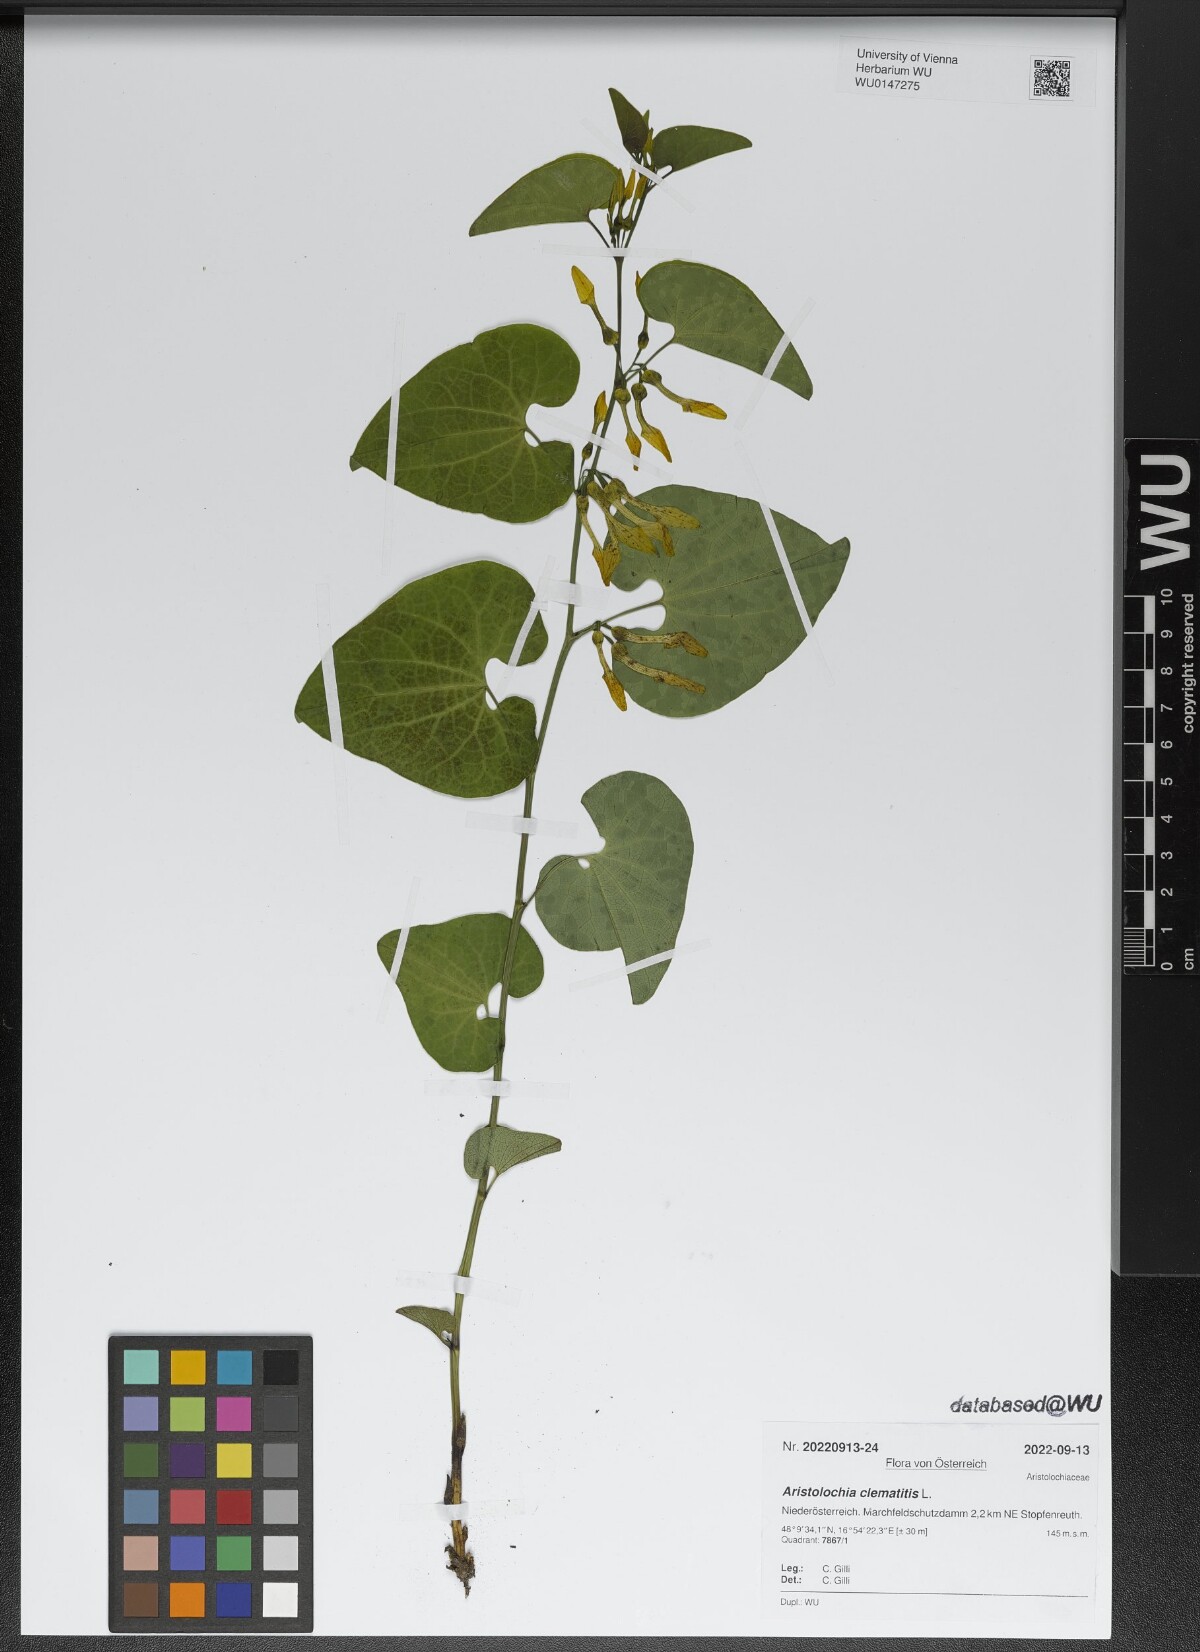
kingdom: Plantae
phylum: Tracheophyta
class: Magnoliopsida
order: Piperales
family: Aristolochiaceae
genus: Aristolochia
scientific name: Aristolochia clematitis
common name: Birthwort
